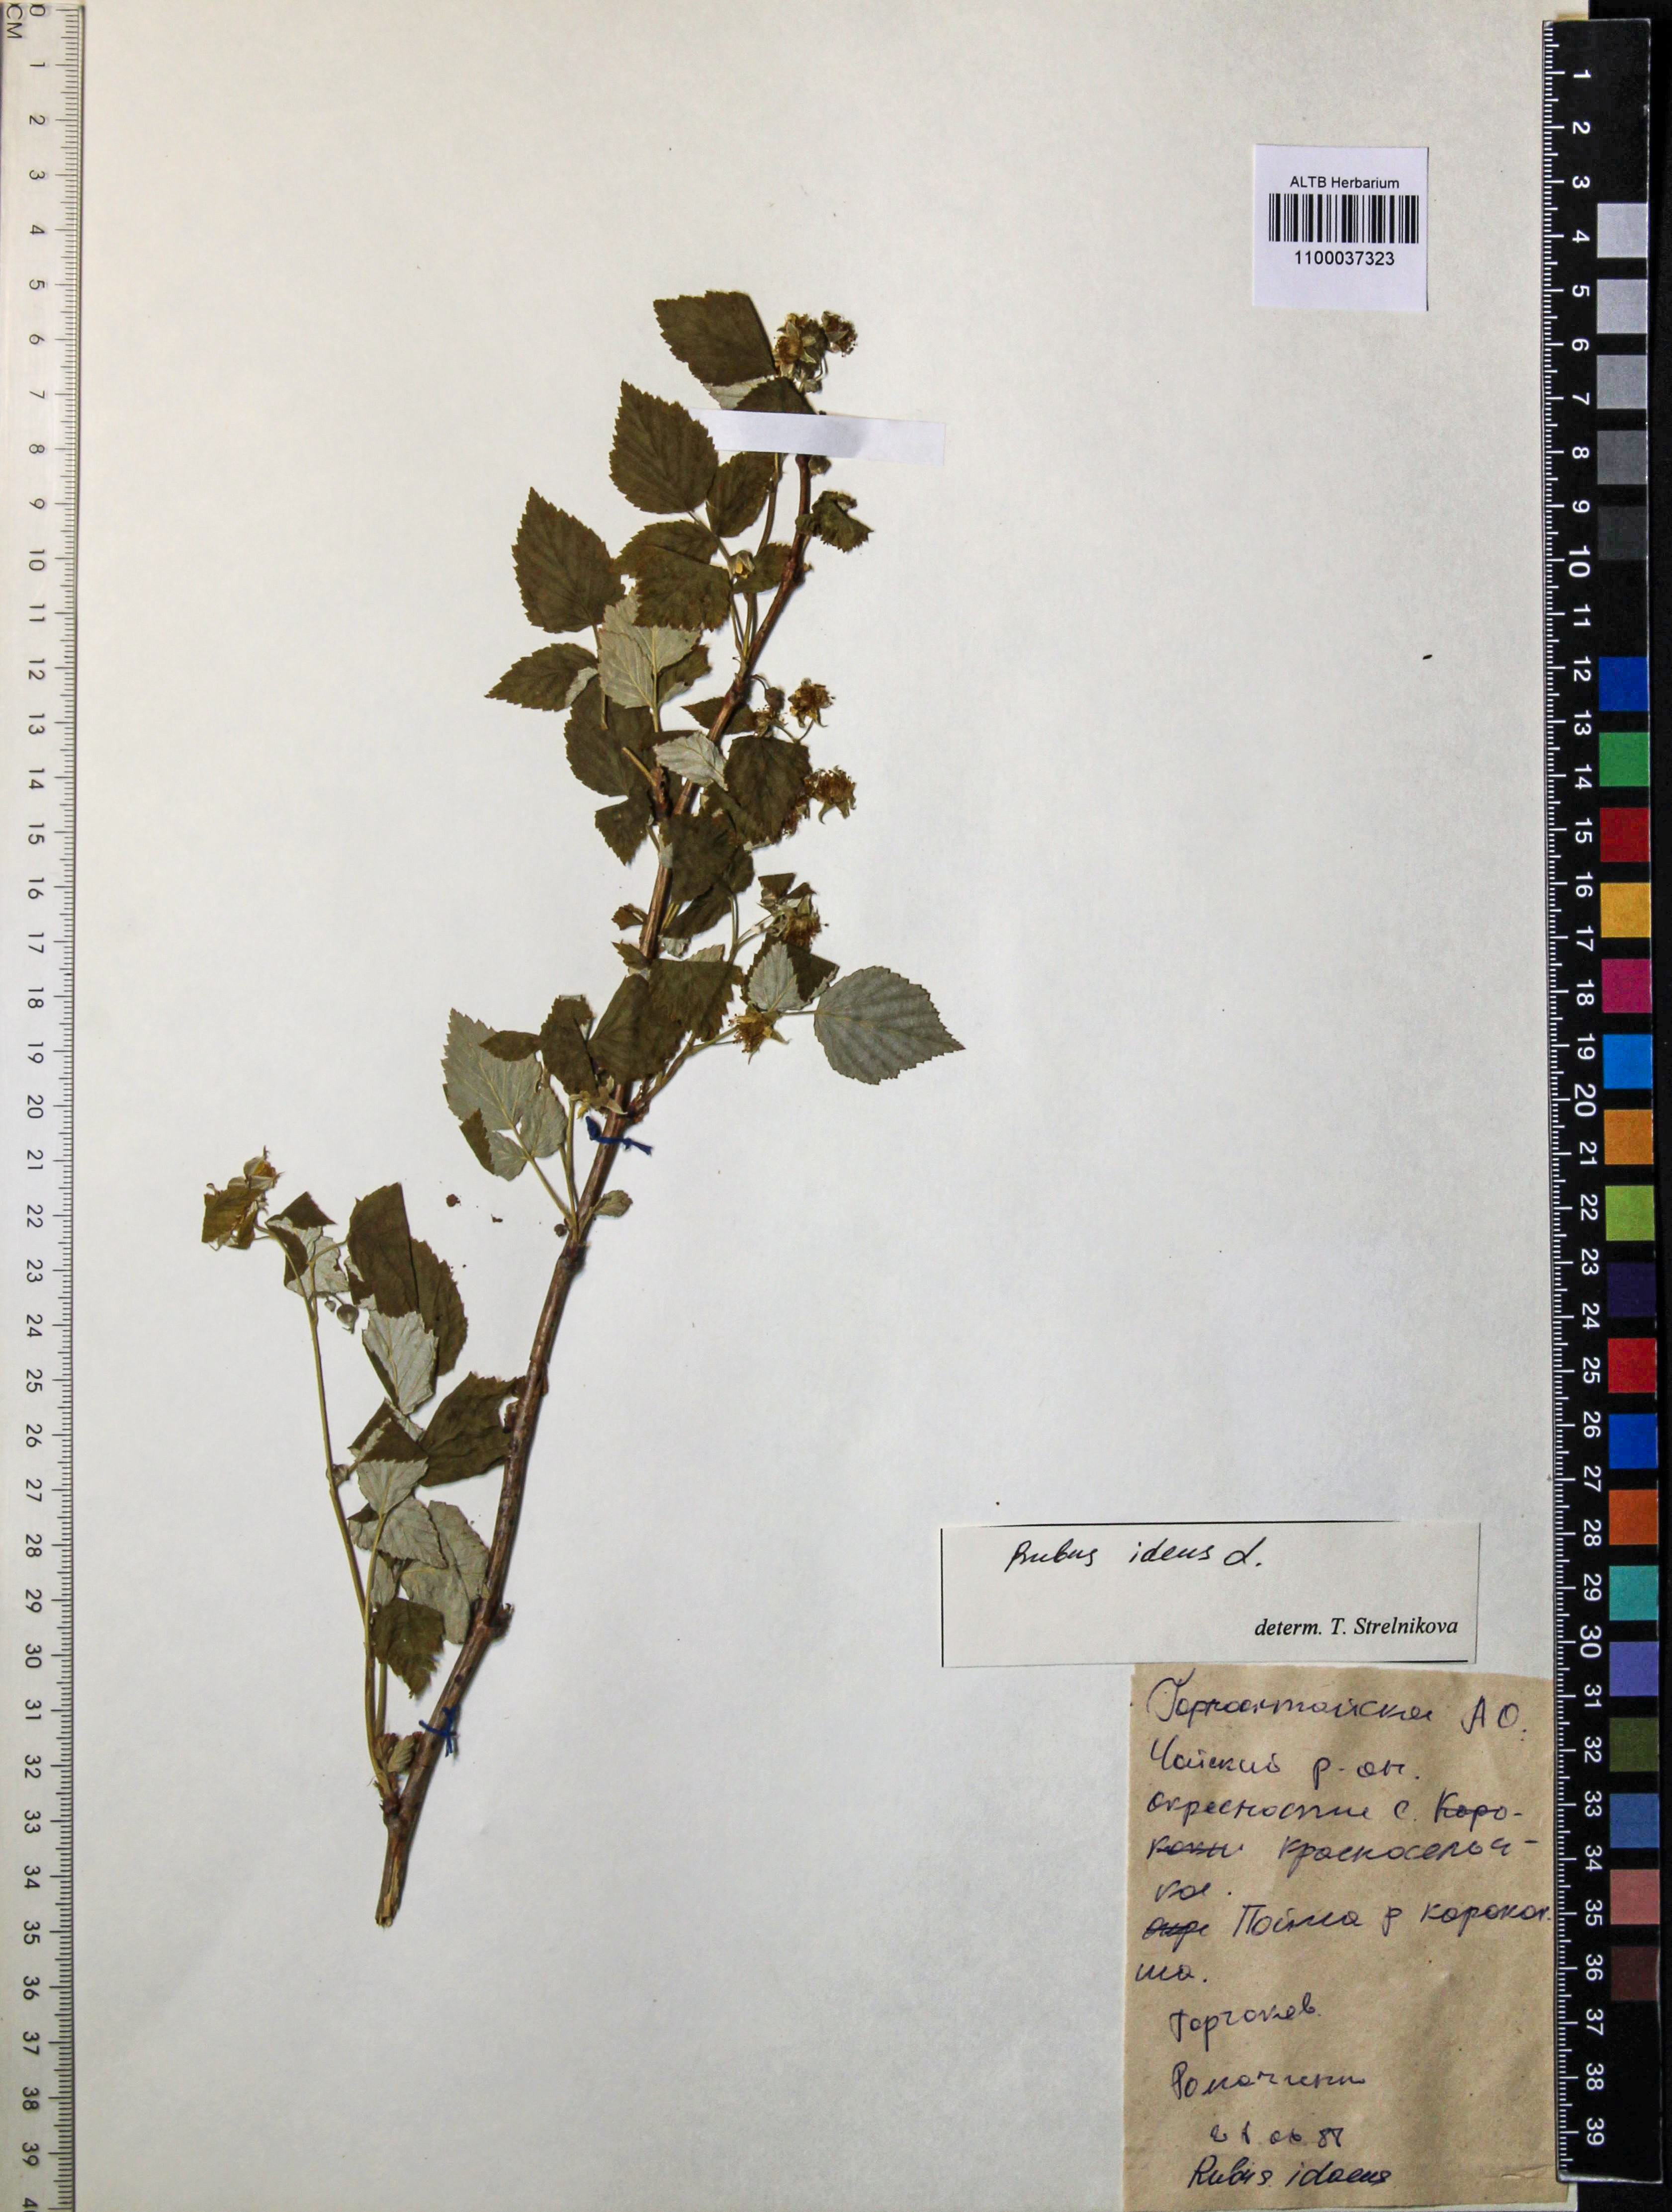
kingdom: Plantae
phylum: Tracheophyta
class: Magnoliopsida
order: Rosales
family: Rosaceae
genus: Rubus
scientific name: Rubus idaeus
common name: Raspberry
